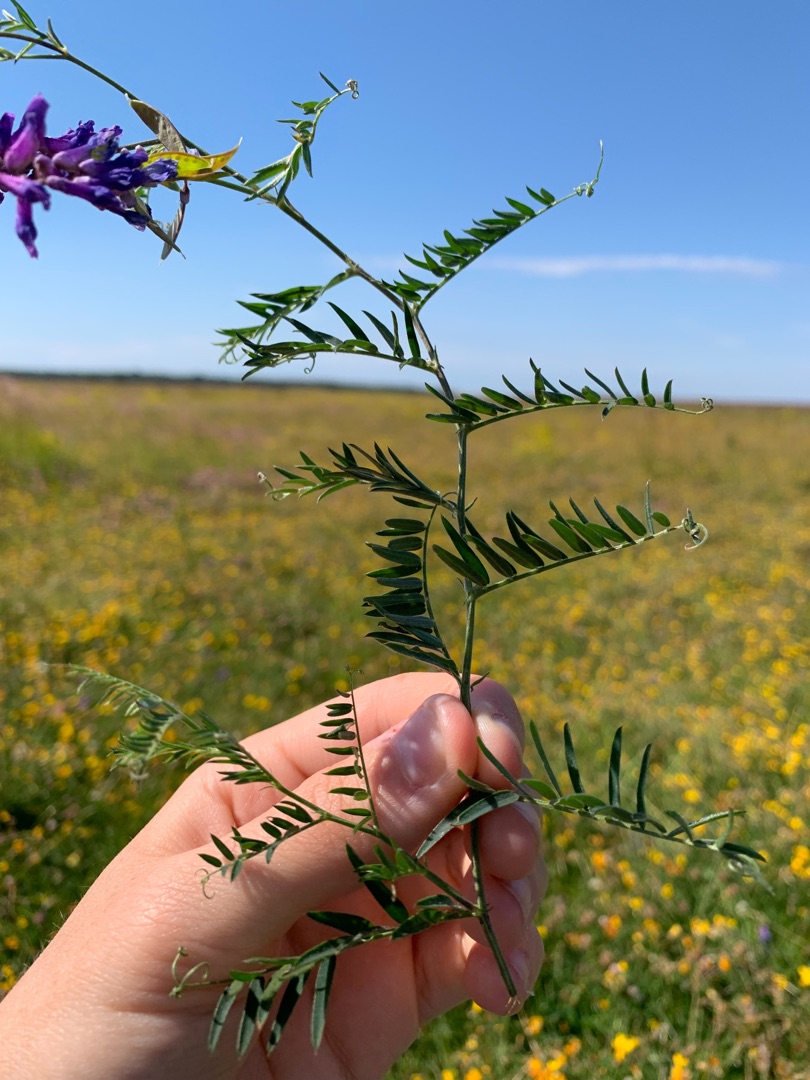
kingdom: Plantae
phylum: Tracheophyta
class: Magnoliopsida
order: Fabales
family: Fabaceae
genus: Vicia
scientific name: Vicia cracca
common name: Muse-vikke
